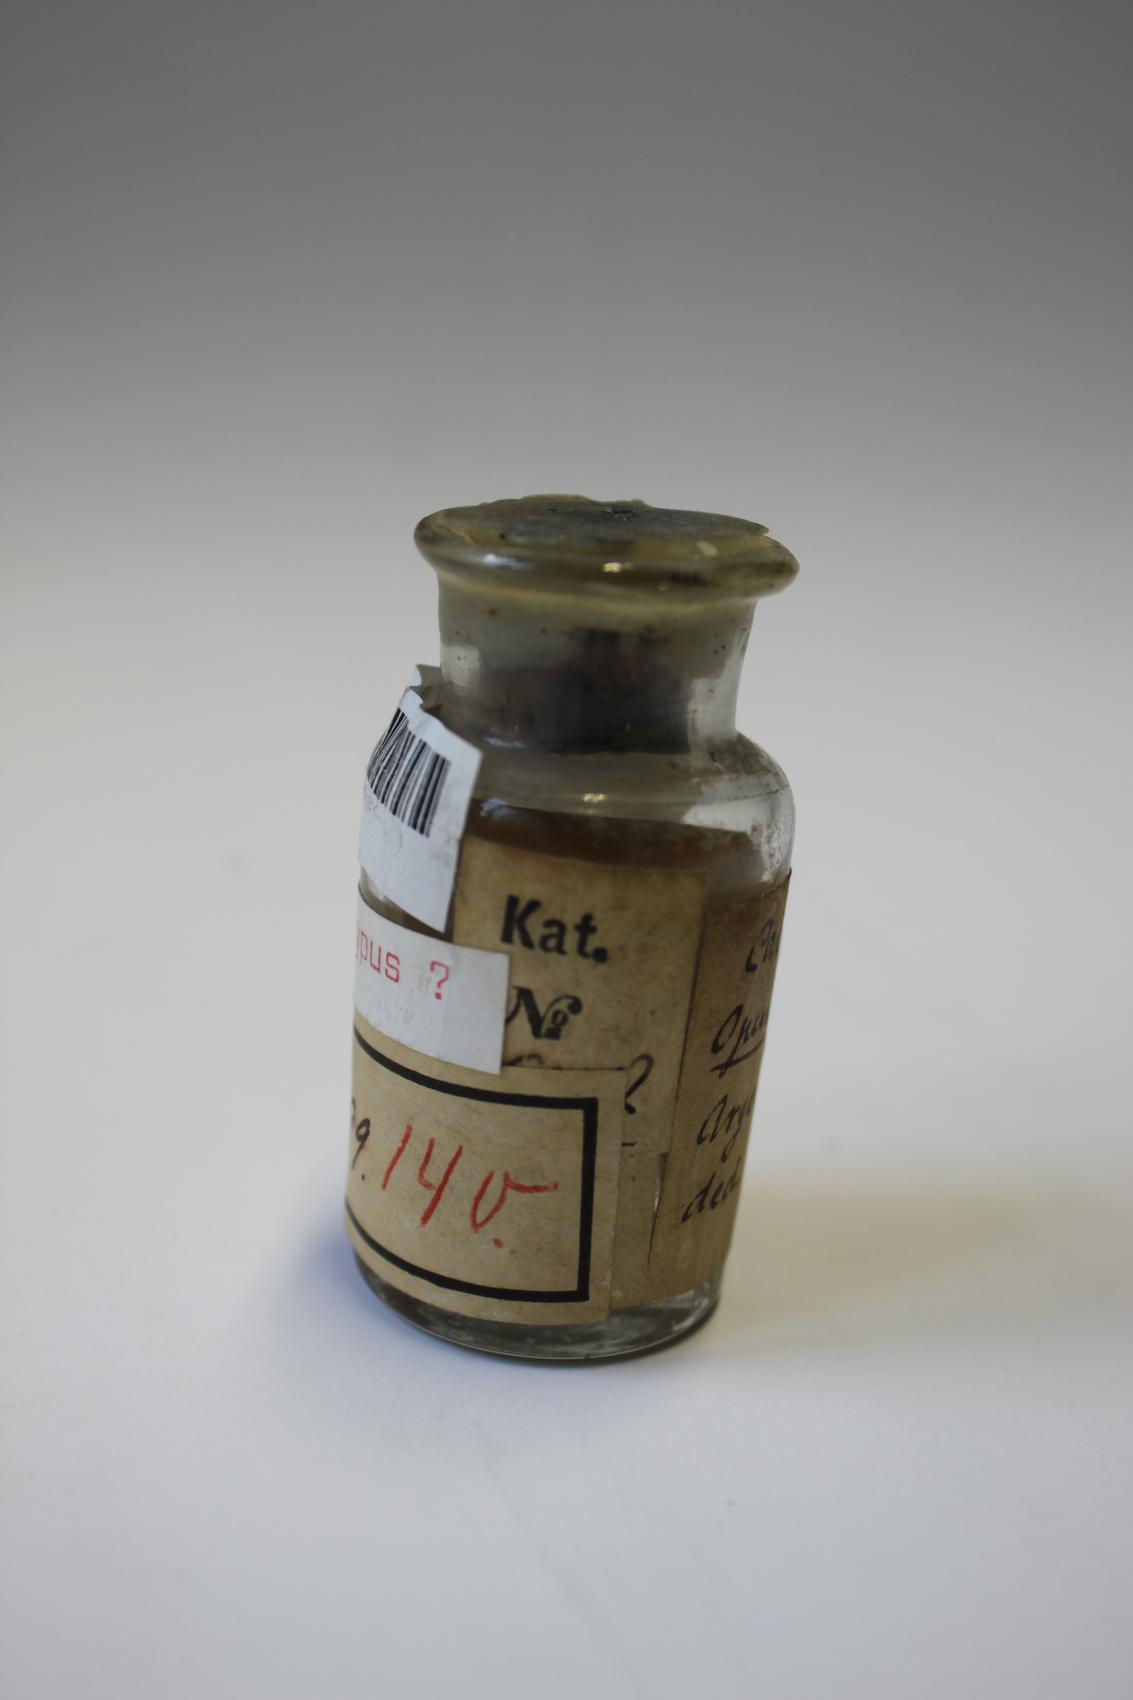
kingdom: Plantae
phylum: Tracheophyta
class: Magnoliopsida
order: Caryophyllales
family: Cactaceae
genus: Salmonopuntia
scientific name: Salmonopuntia salmiana
